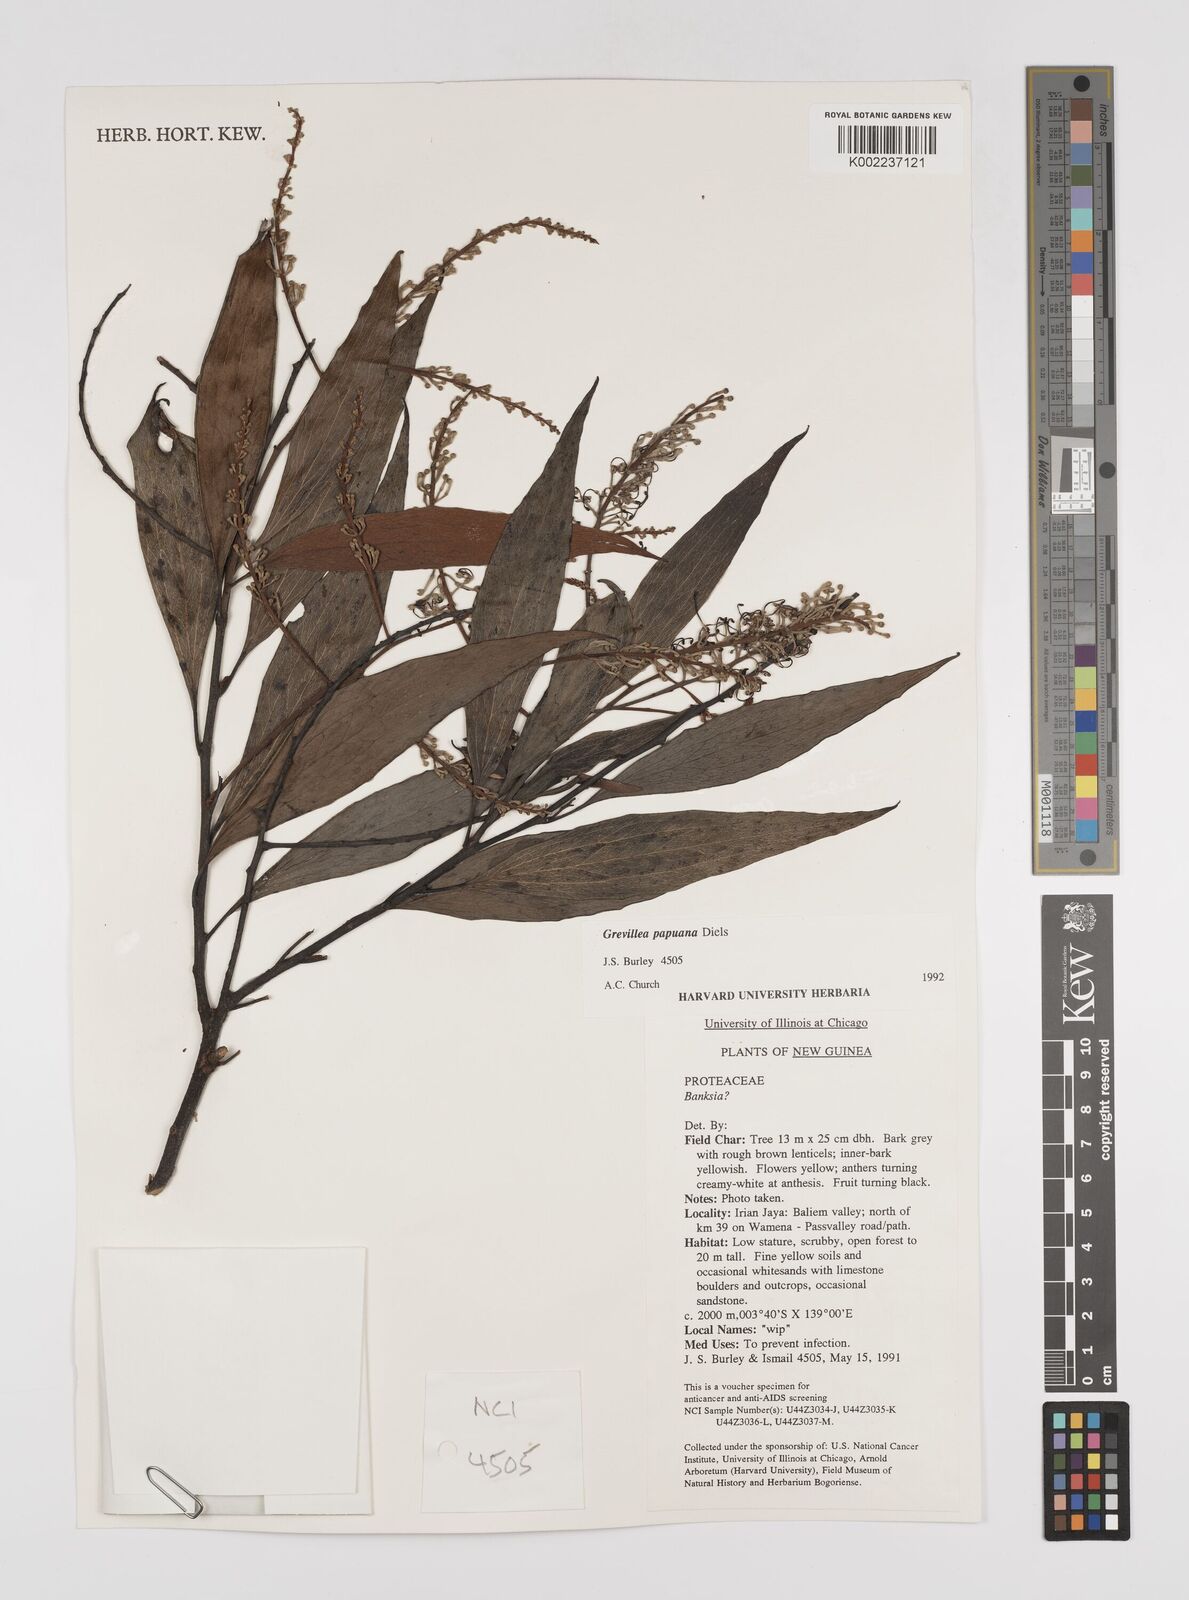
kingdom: Plantae
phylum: Tracheophyta
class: Magnoliopsida
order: Proteales
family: Proteaceae
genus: Grevillea
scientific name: Grevillea papuana
